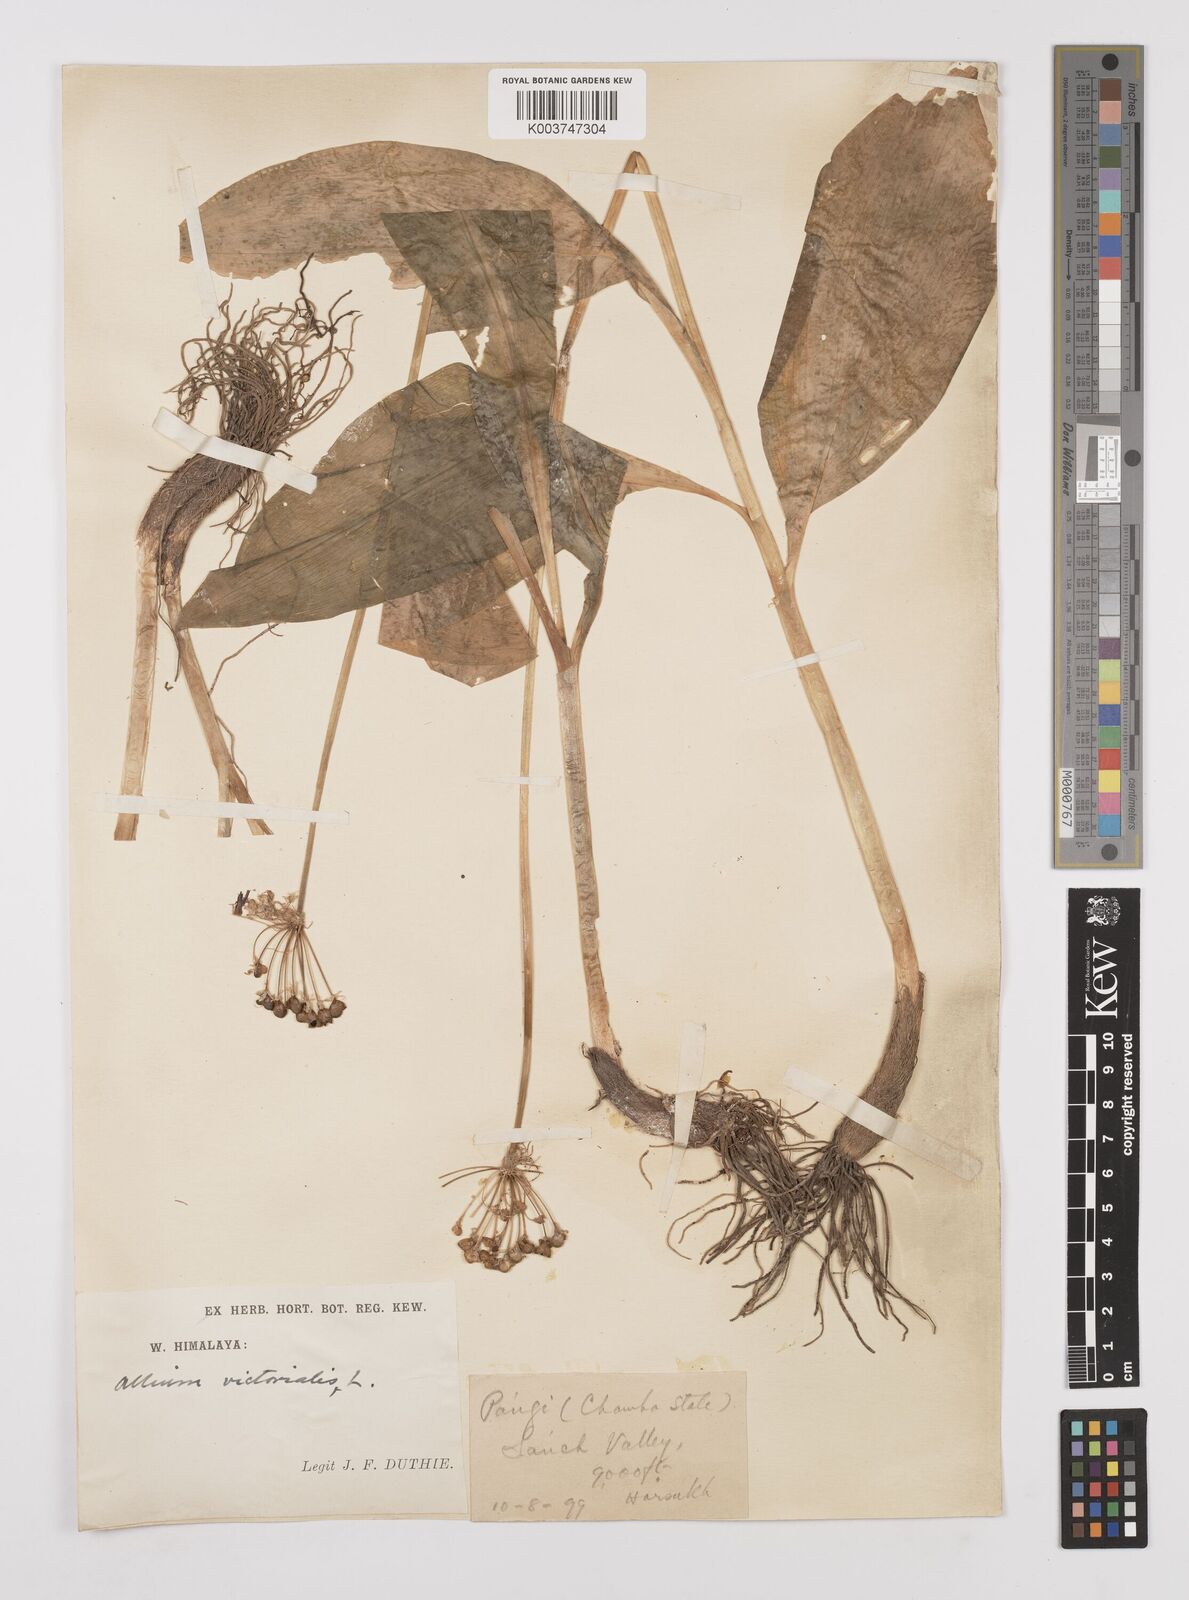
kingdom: Plantae
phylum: Tracheophyta
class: Liliopsida
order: Asparagales
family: Amaryllidaceae
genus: Allium
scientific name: Allium victorialis
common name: Alpine leek
